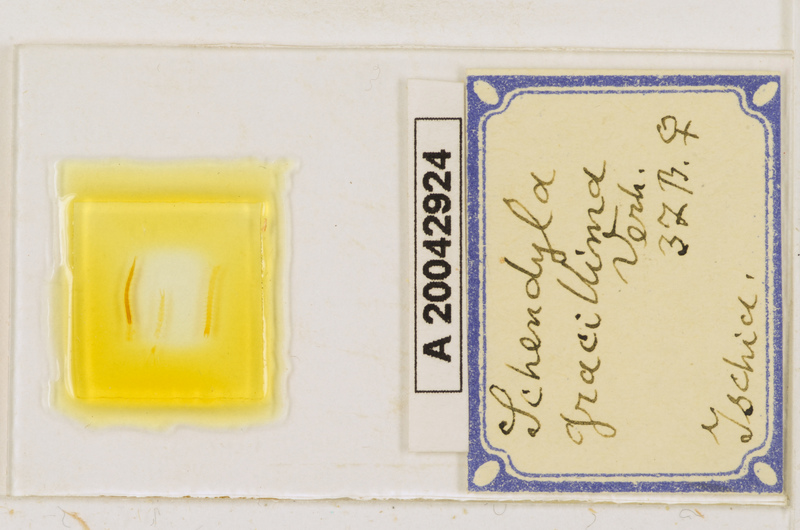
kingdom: Animalia
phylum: Arthropoda
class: Chilopoda
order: Geophilomorpha
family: Schendylidae
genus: Schendyla
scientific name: Schendyla gracillima
